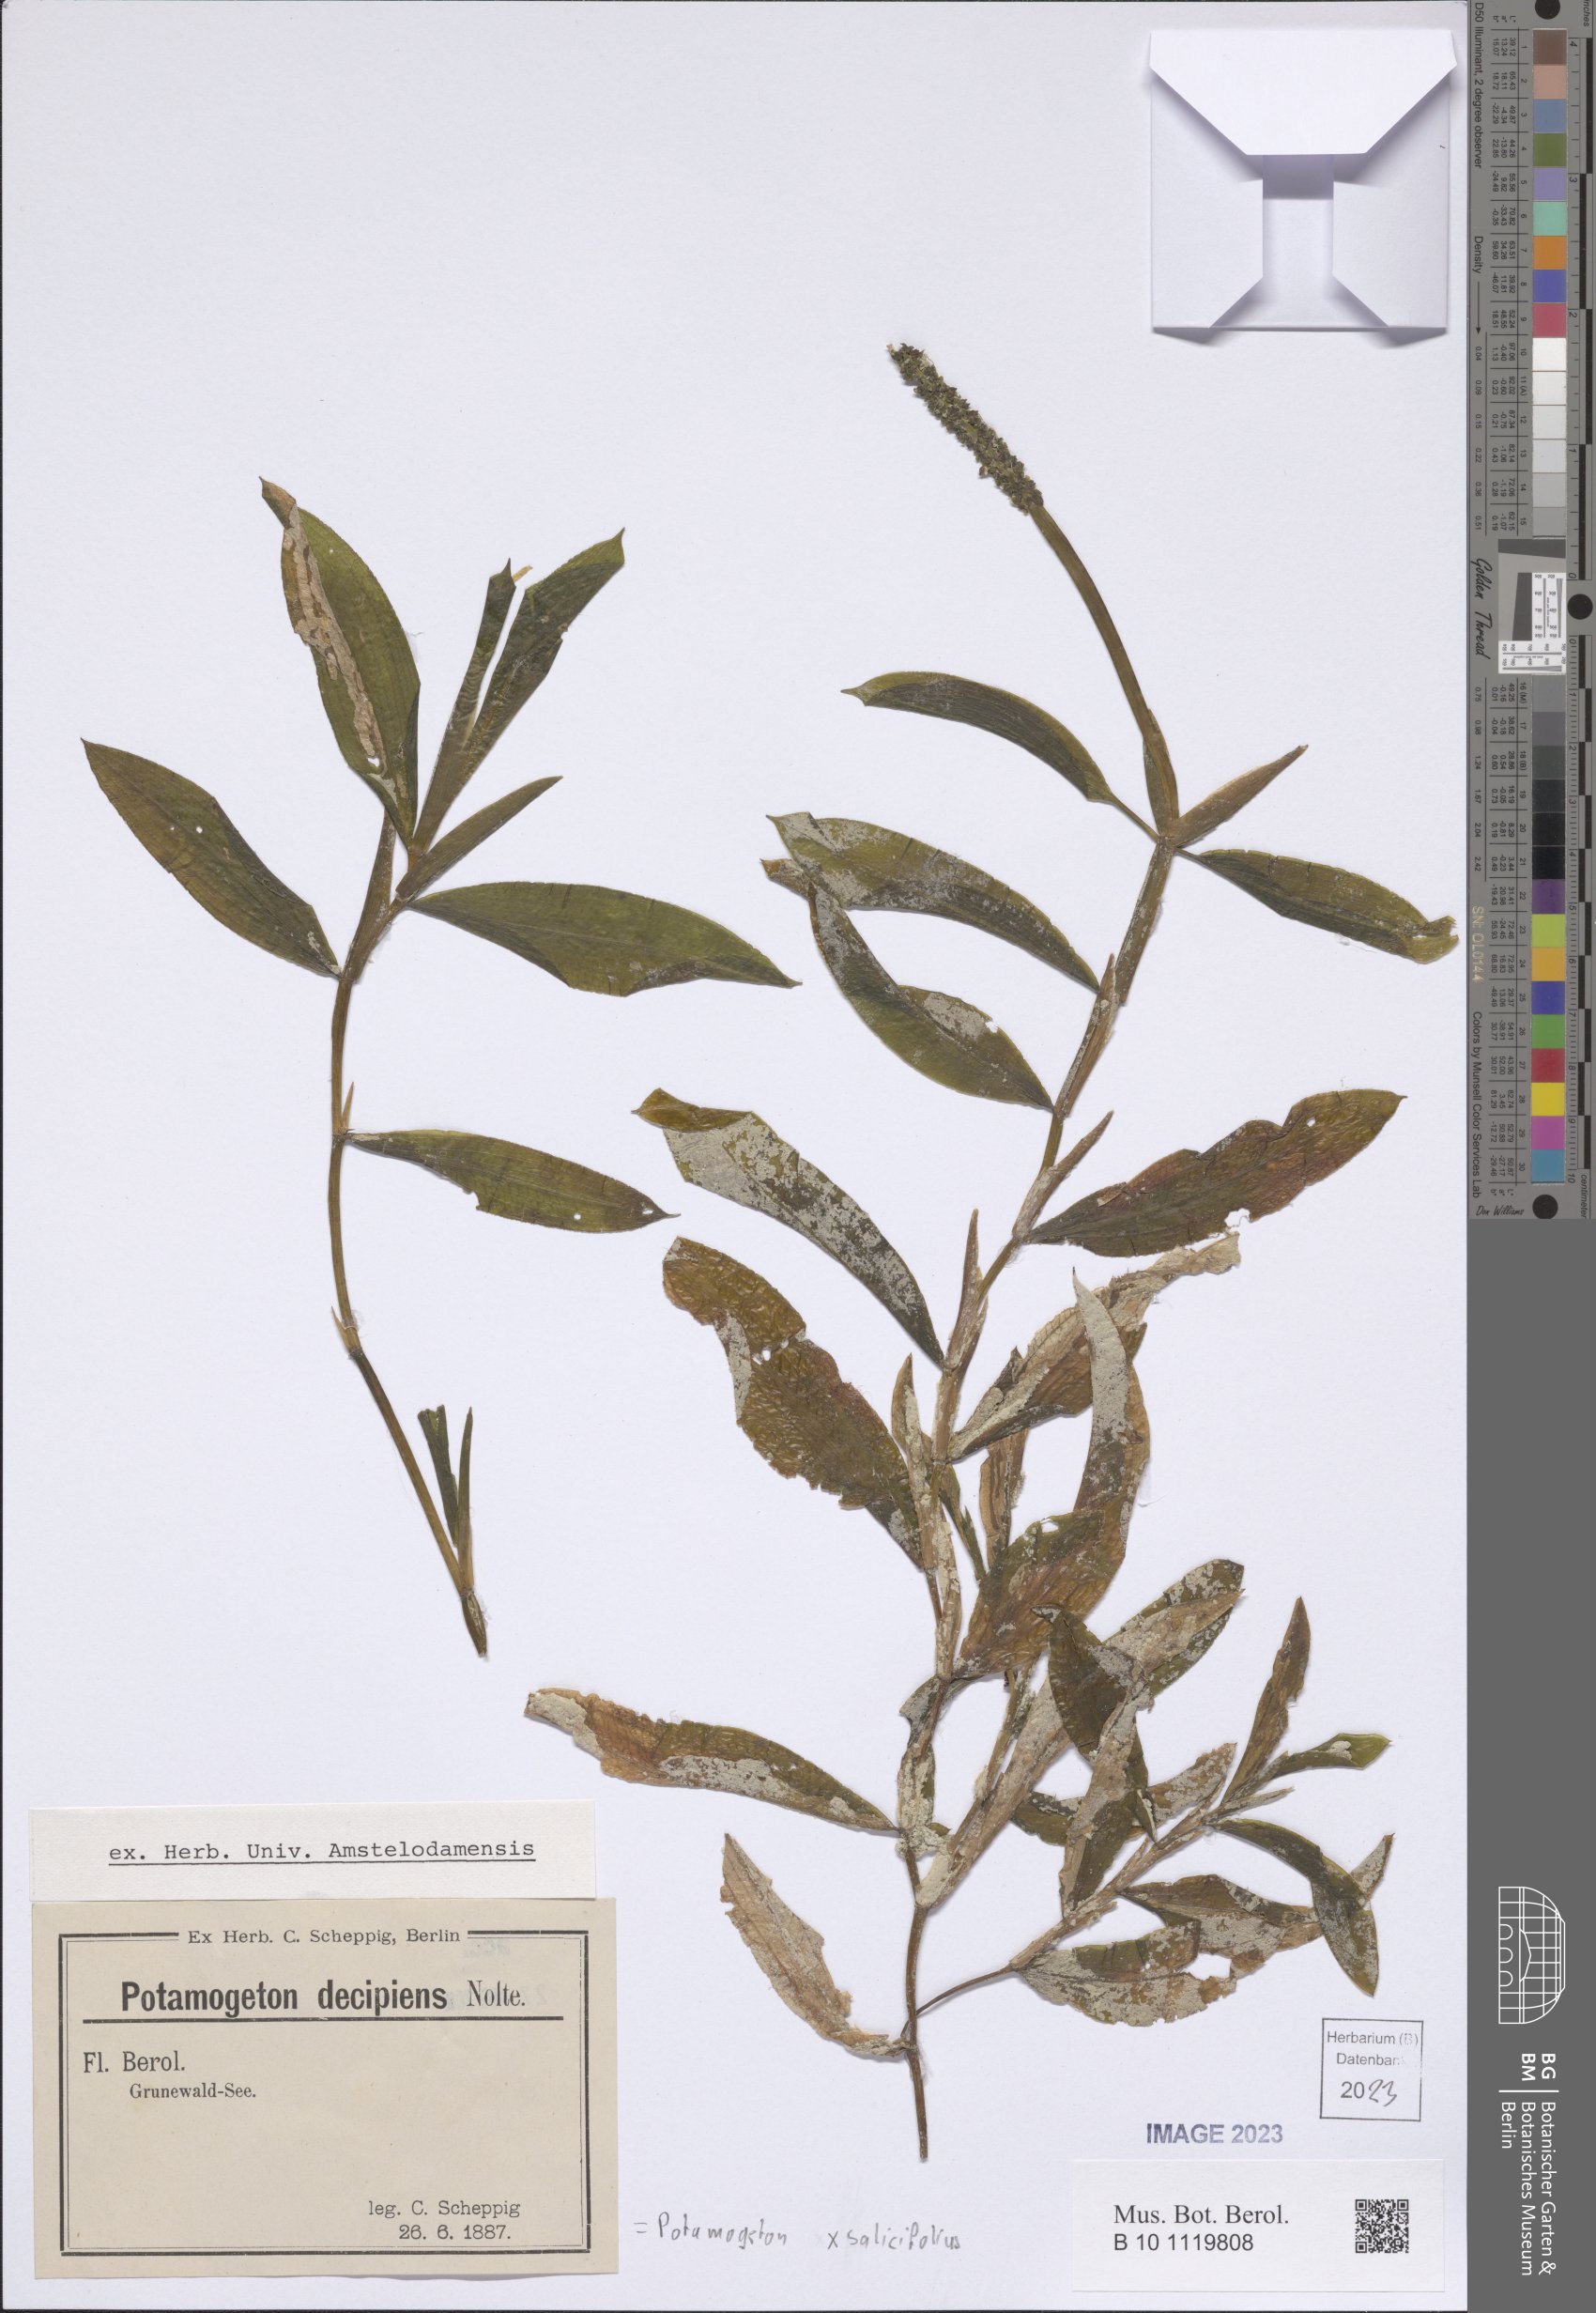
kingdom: Plantae
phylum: Tracheophyta
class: Liliopsida
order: Alismatales
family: Potamogetonaceae
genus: Potamogeton
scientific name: Potamogeton salicifolius
